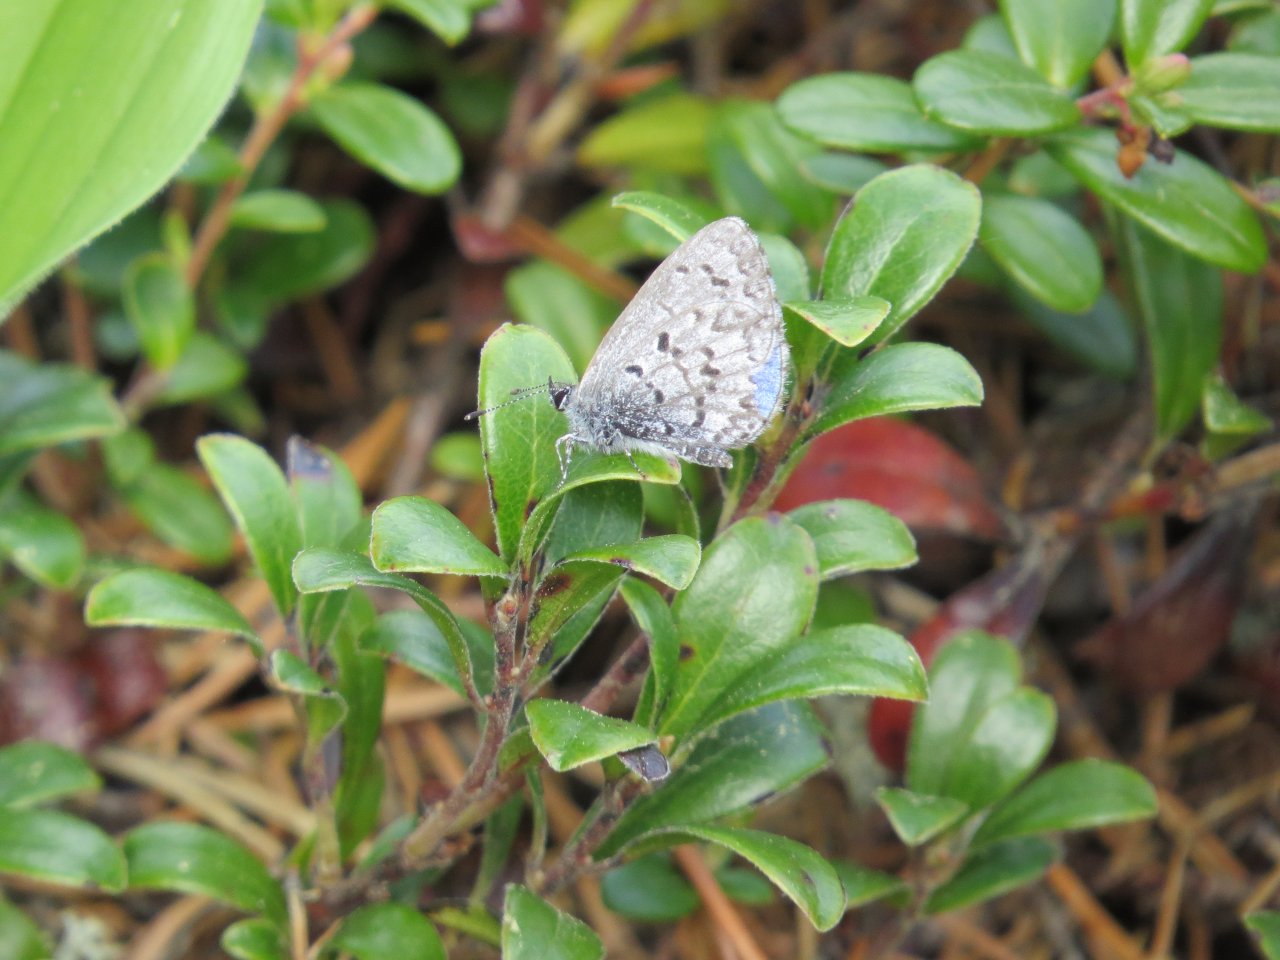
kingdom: Animalia
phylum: Arthropoda
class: Insecta
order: Lepidoptera
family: Lycaenidae
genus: Celastrina
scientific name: Celastrina ladon
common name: Spring Azure
